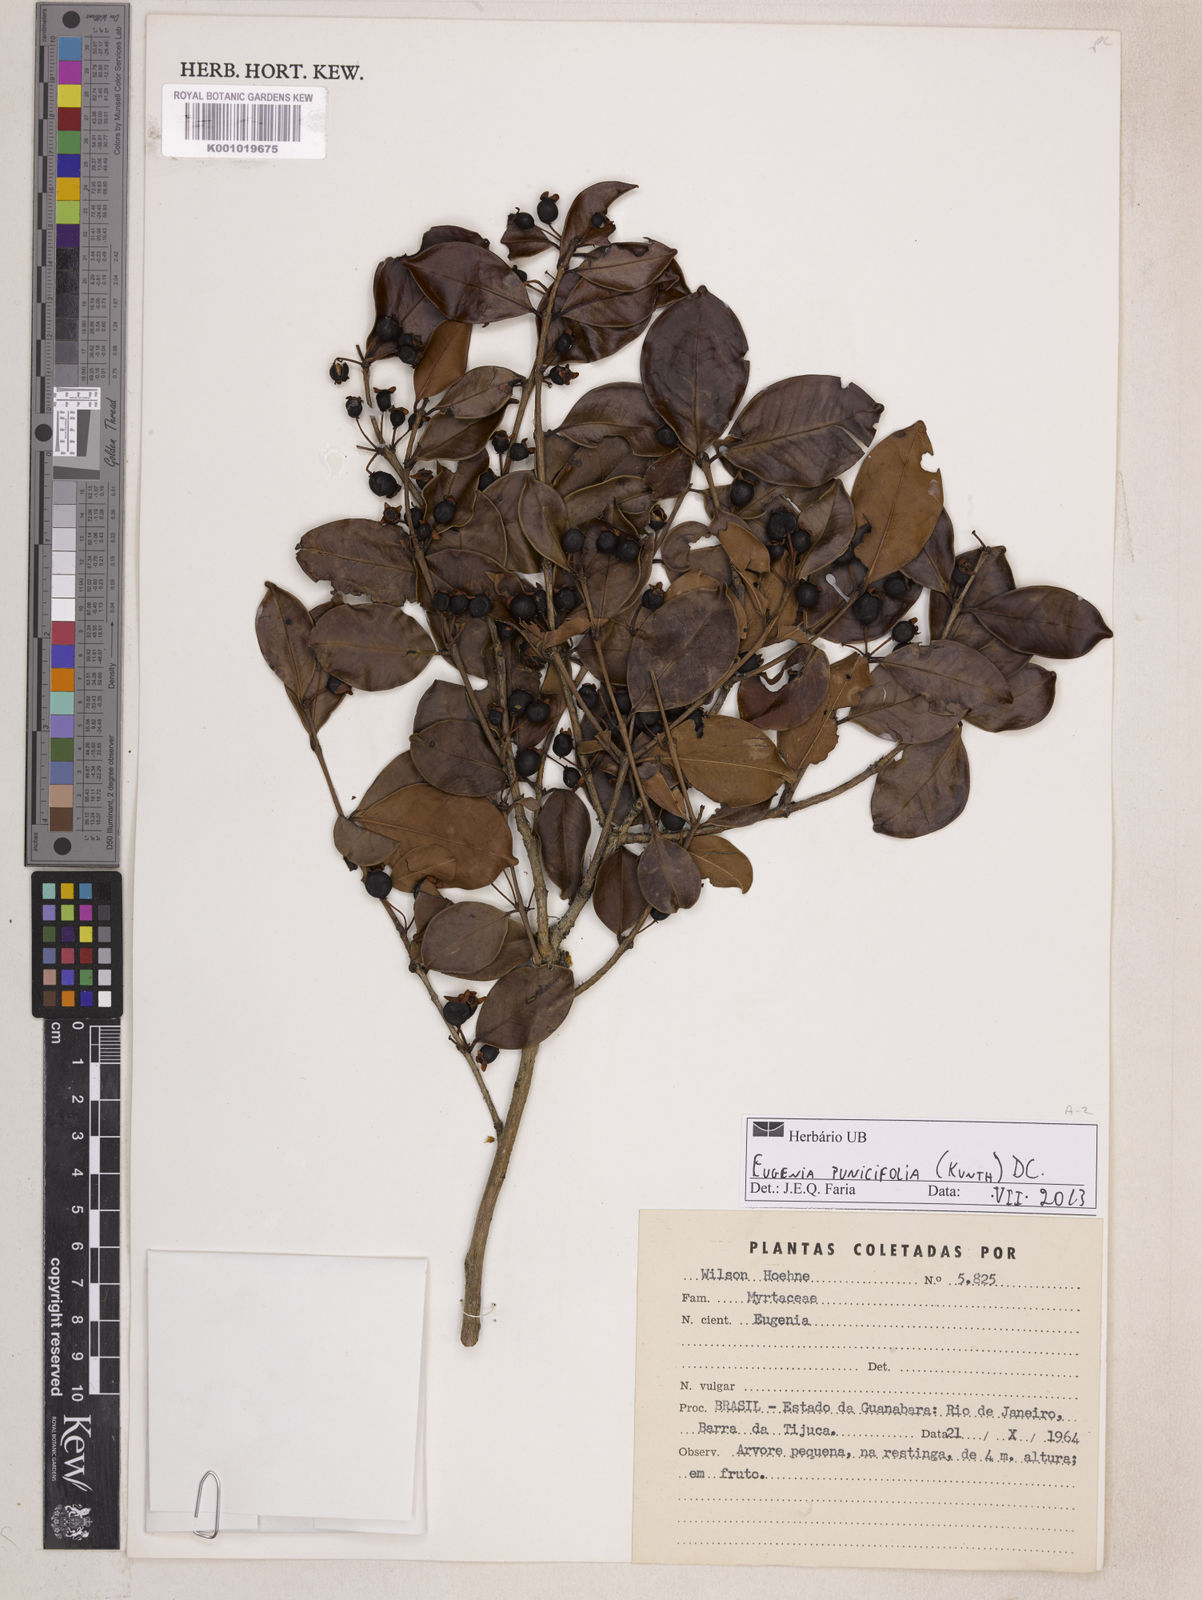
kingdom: Plantae
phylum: Tracheophyta
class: Magnoliopsida
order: Myrtales
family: Myrtaceae
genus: Eugenia
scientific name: Eugenia punicifolia
